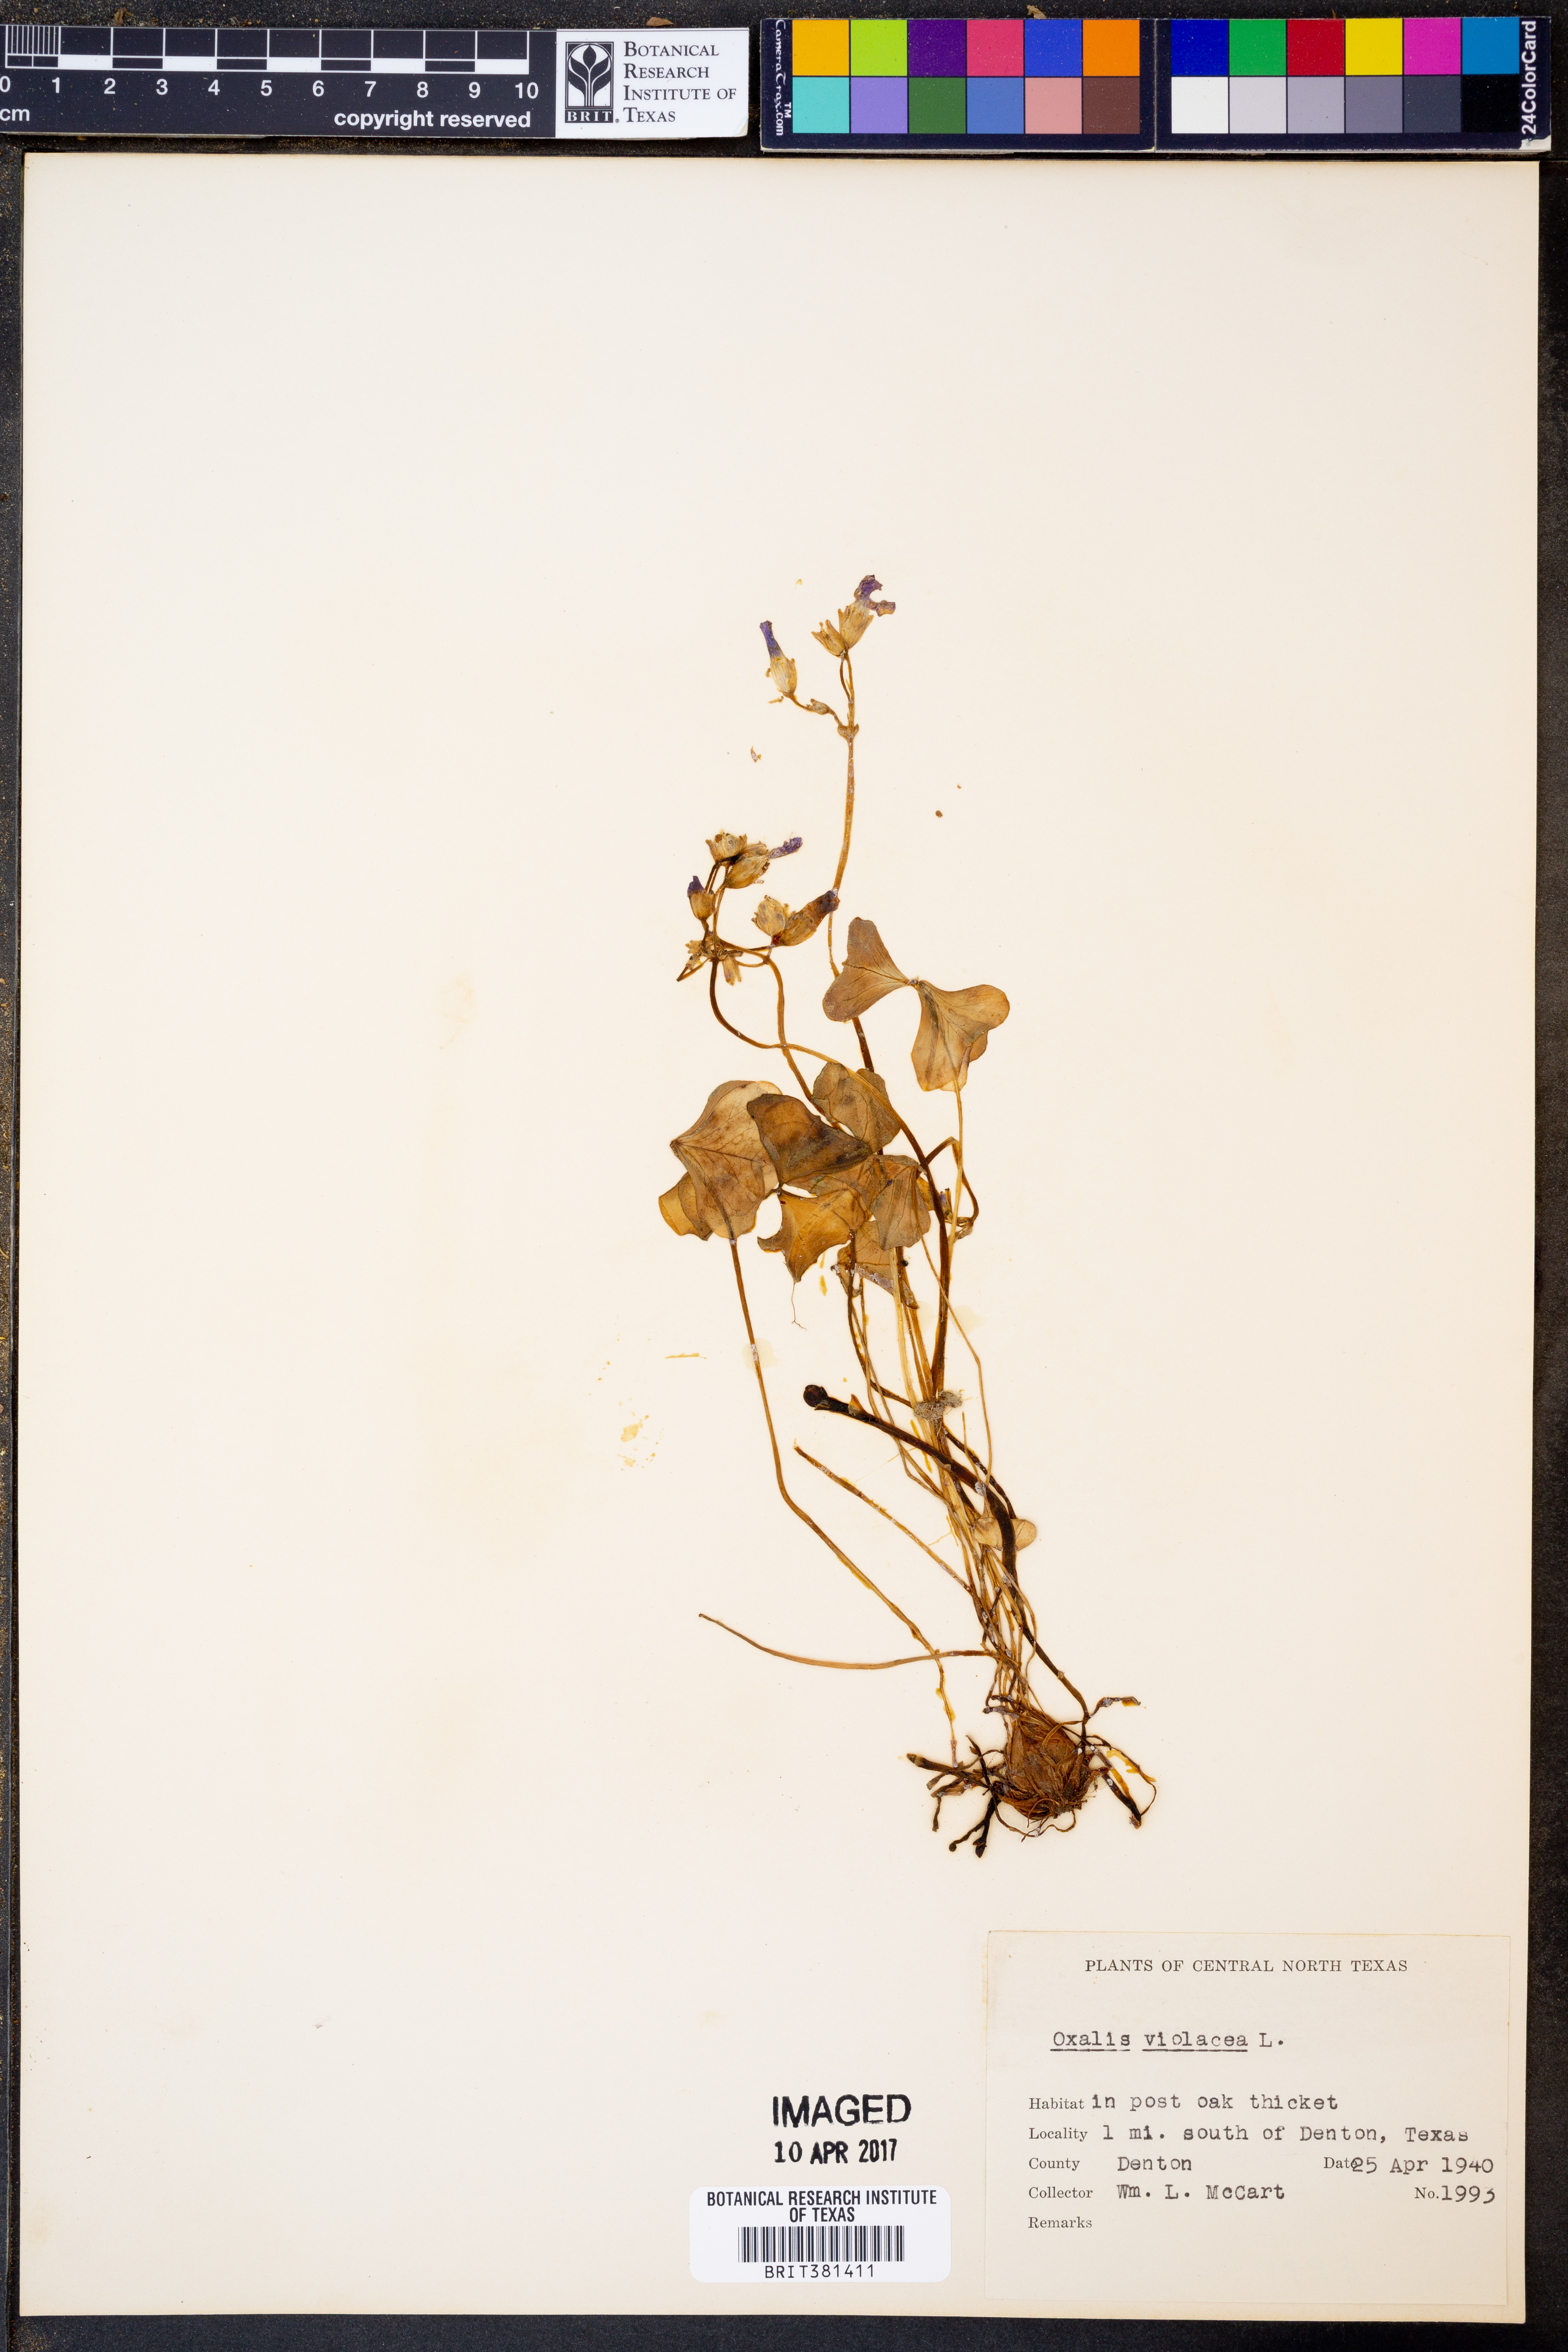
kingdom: Plantae
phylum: Tracheophyta
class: Magnoliopsida
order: Oxalidales
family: Oxalidaceae
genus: Oxalis
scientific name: Oxalis violacea
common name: Violet wood-sorrel
